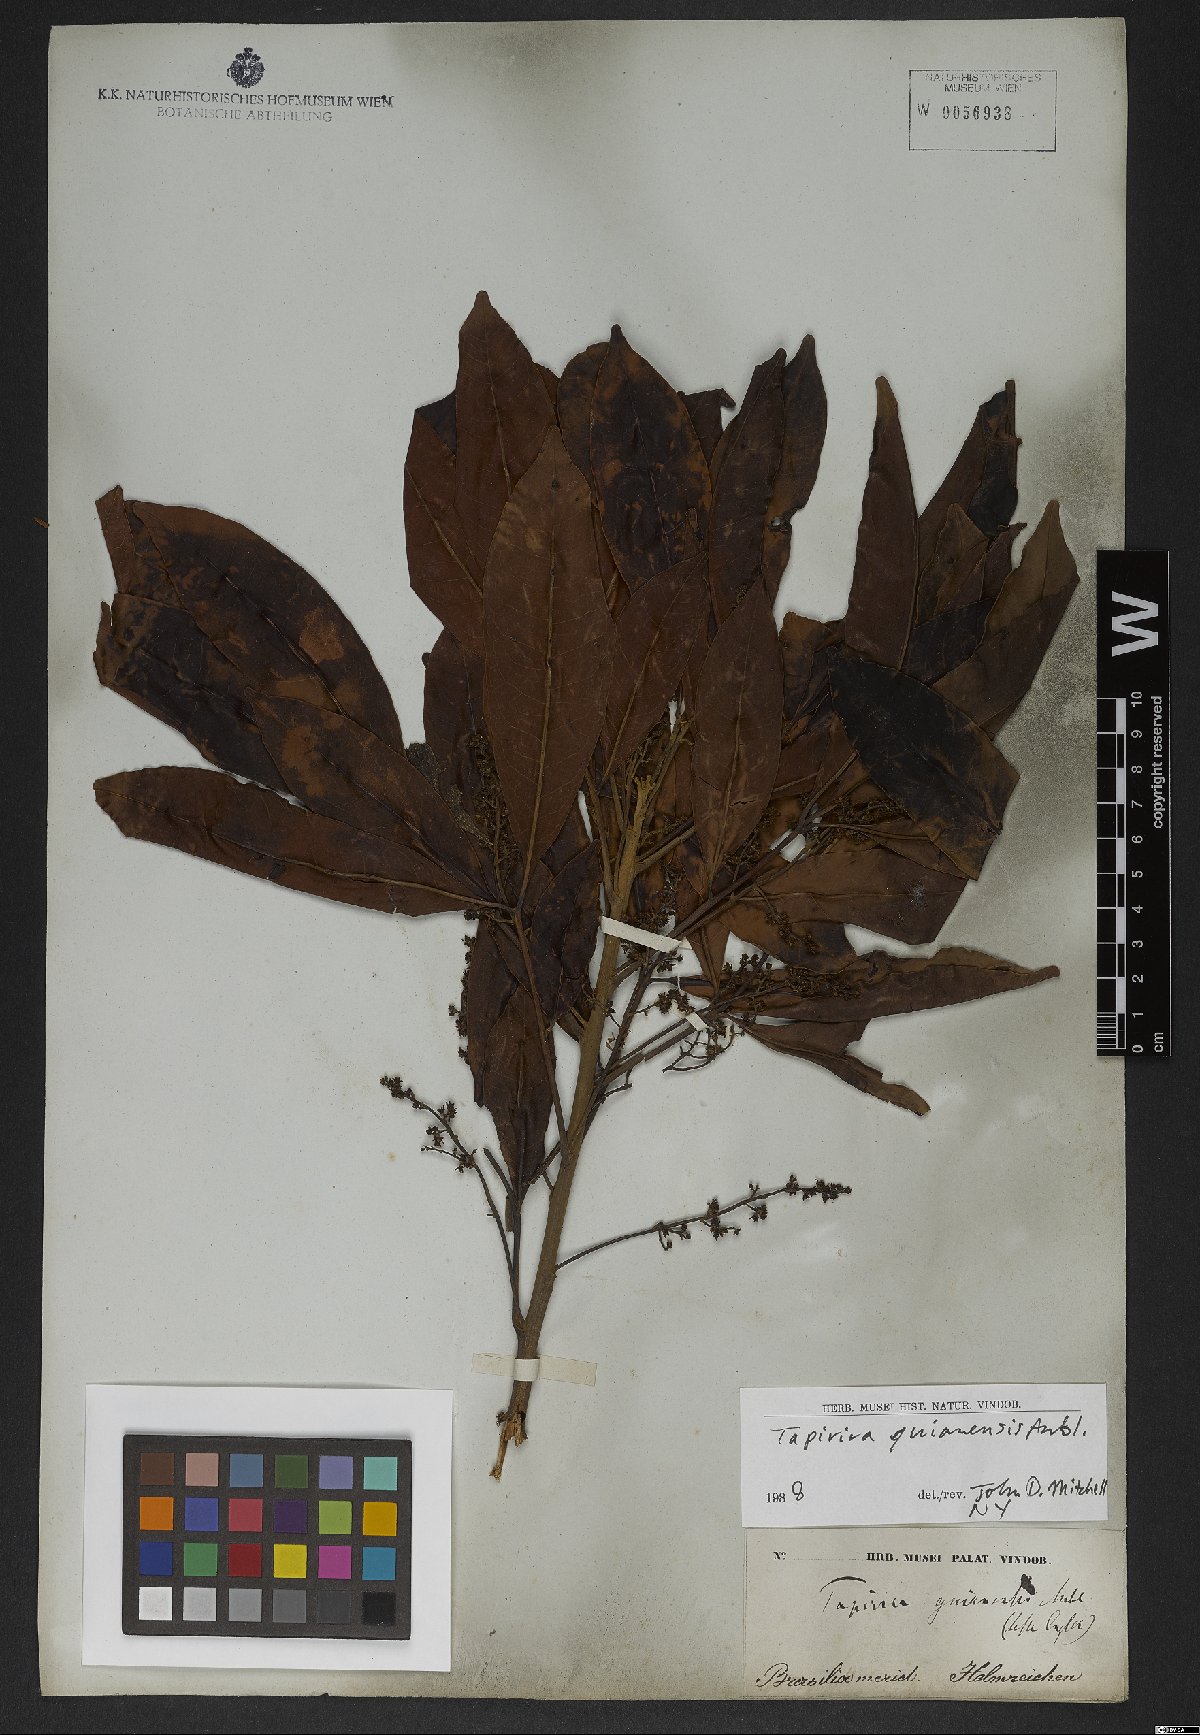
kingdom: Plantae
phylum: Tracheophyta
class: Magnoliopsida
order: Sapindales
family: Anacardiaceae
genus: Tapirira
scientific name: Tapirira guianensis
